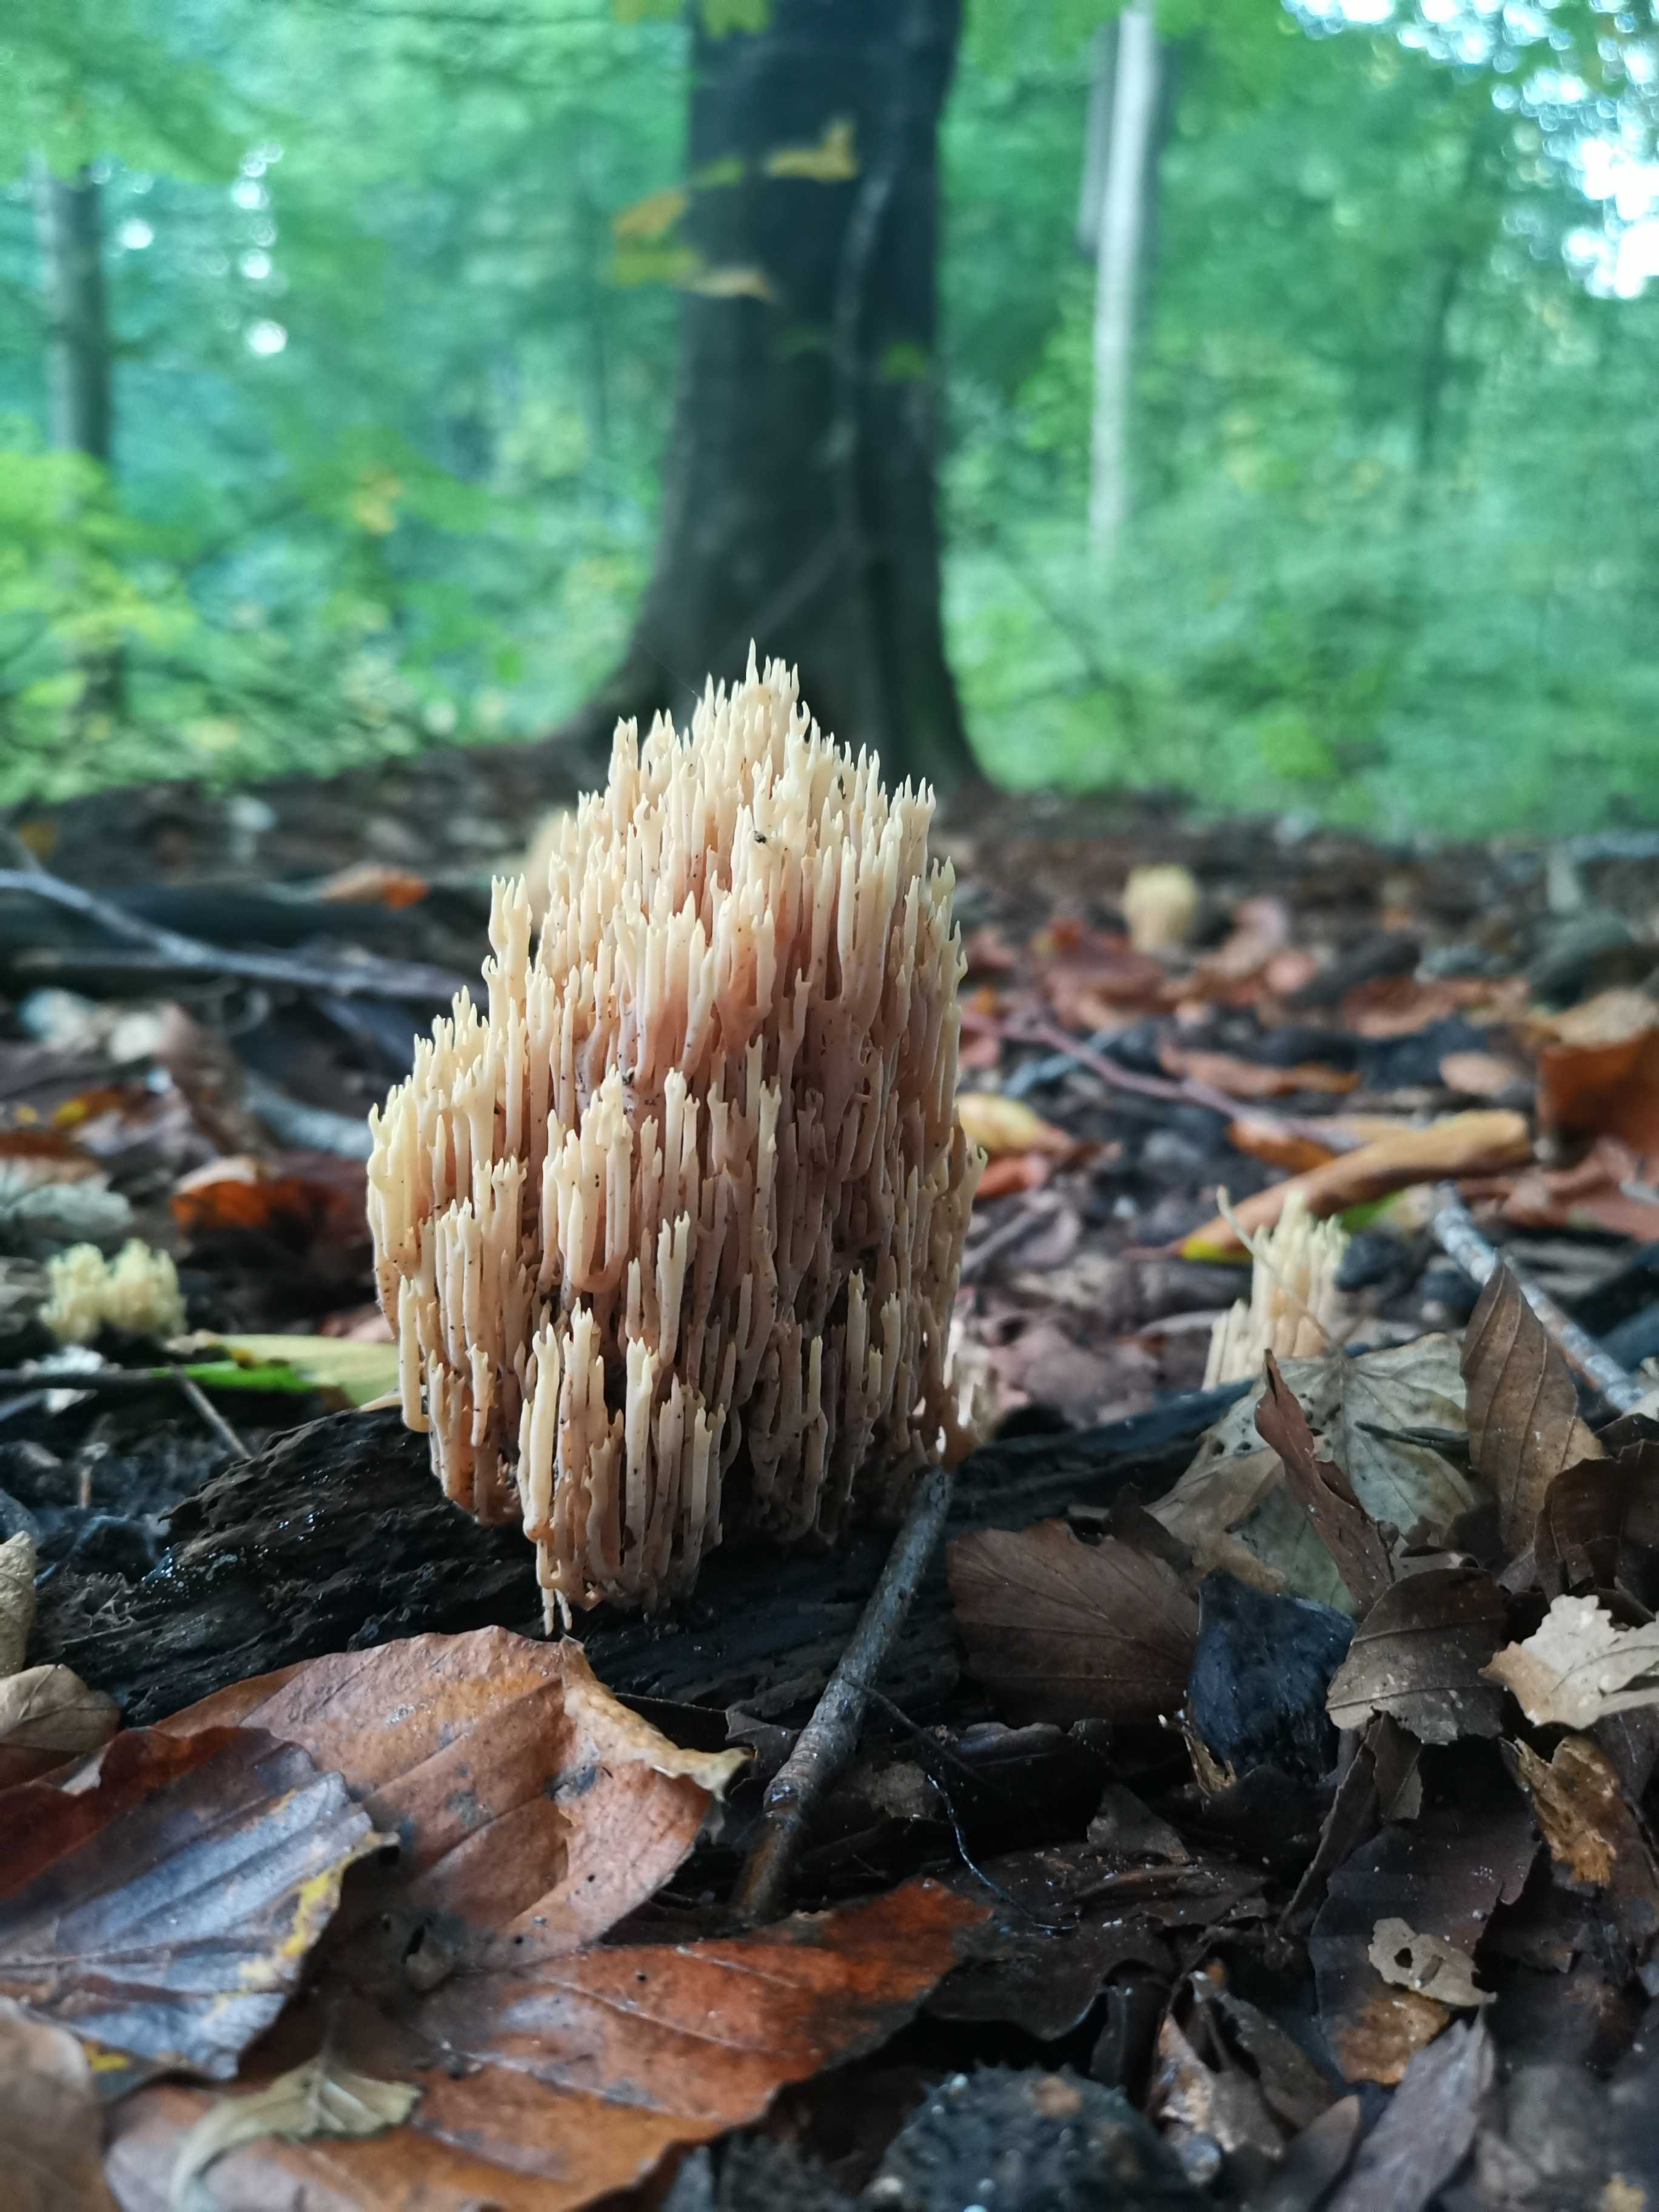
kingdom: Fungi
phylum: Basidiomycota
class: Agaricomycetes
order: Gomphales
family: Gomphaceae
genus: Ramaria
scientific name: Ramaria stricta
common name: rank koralsvamp
